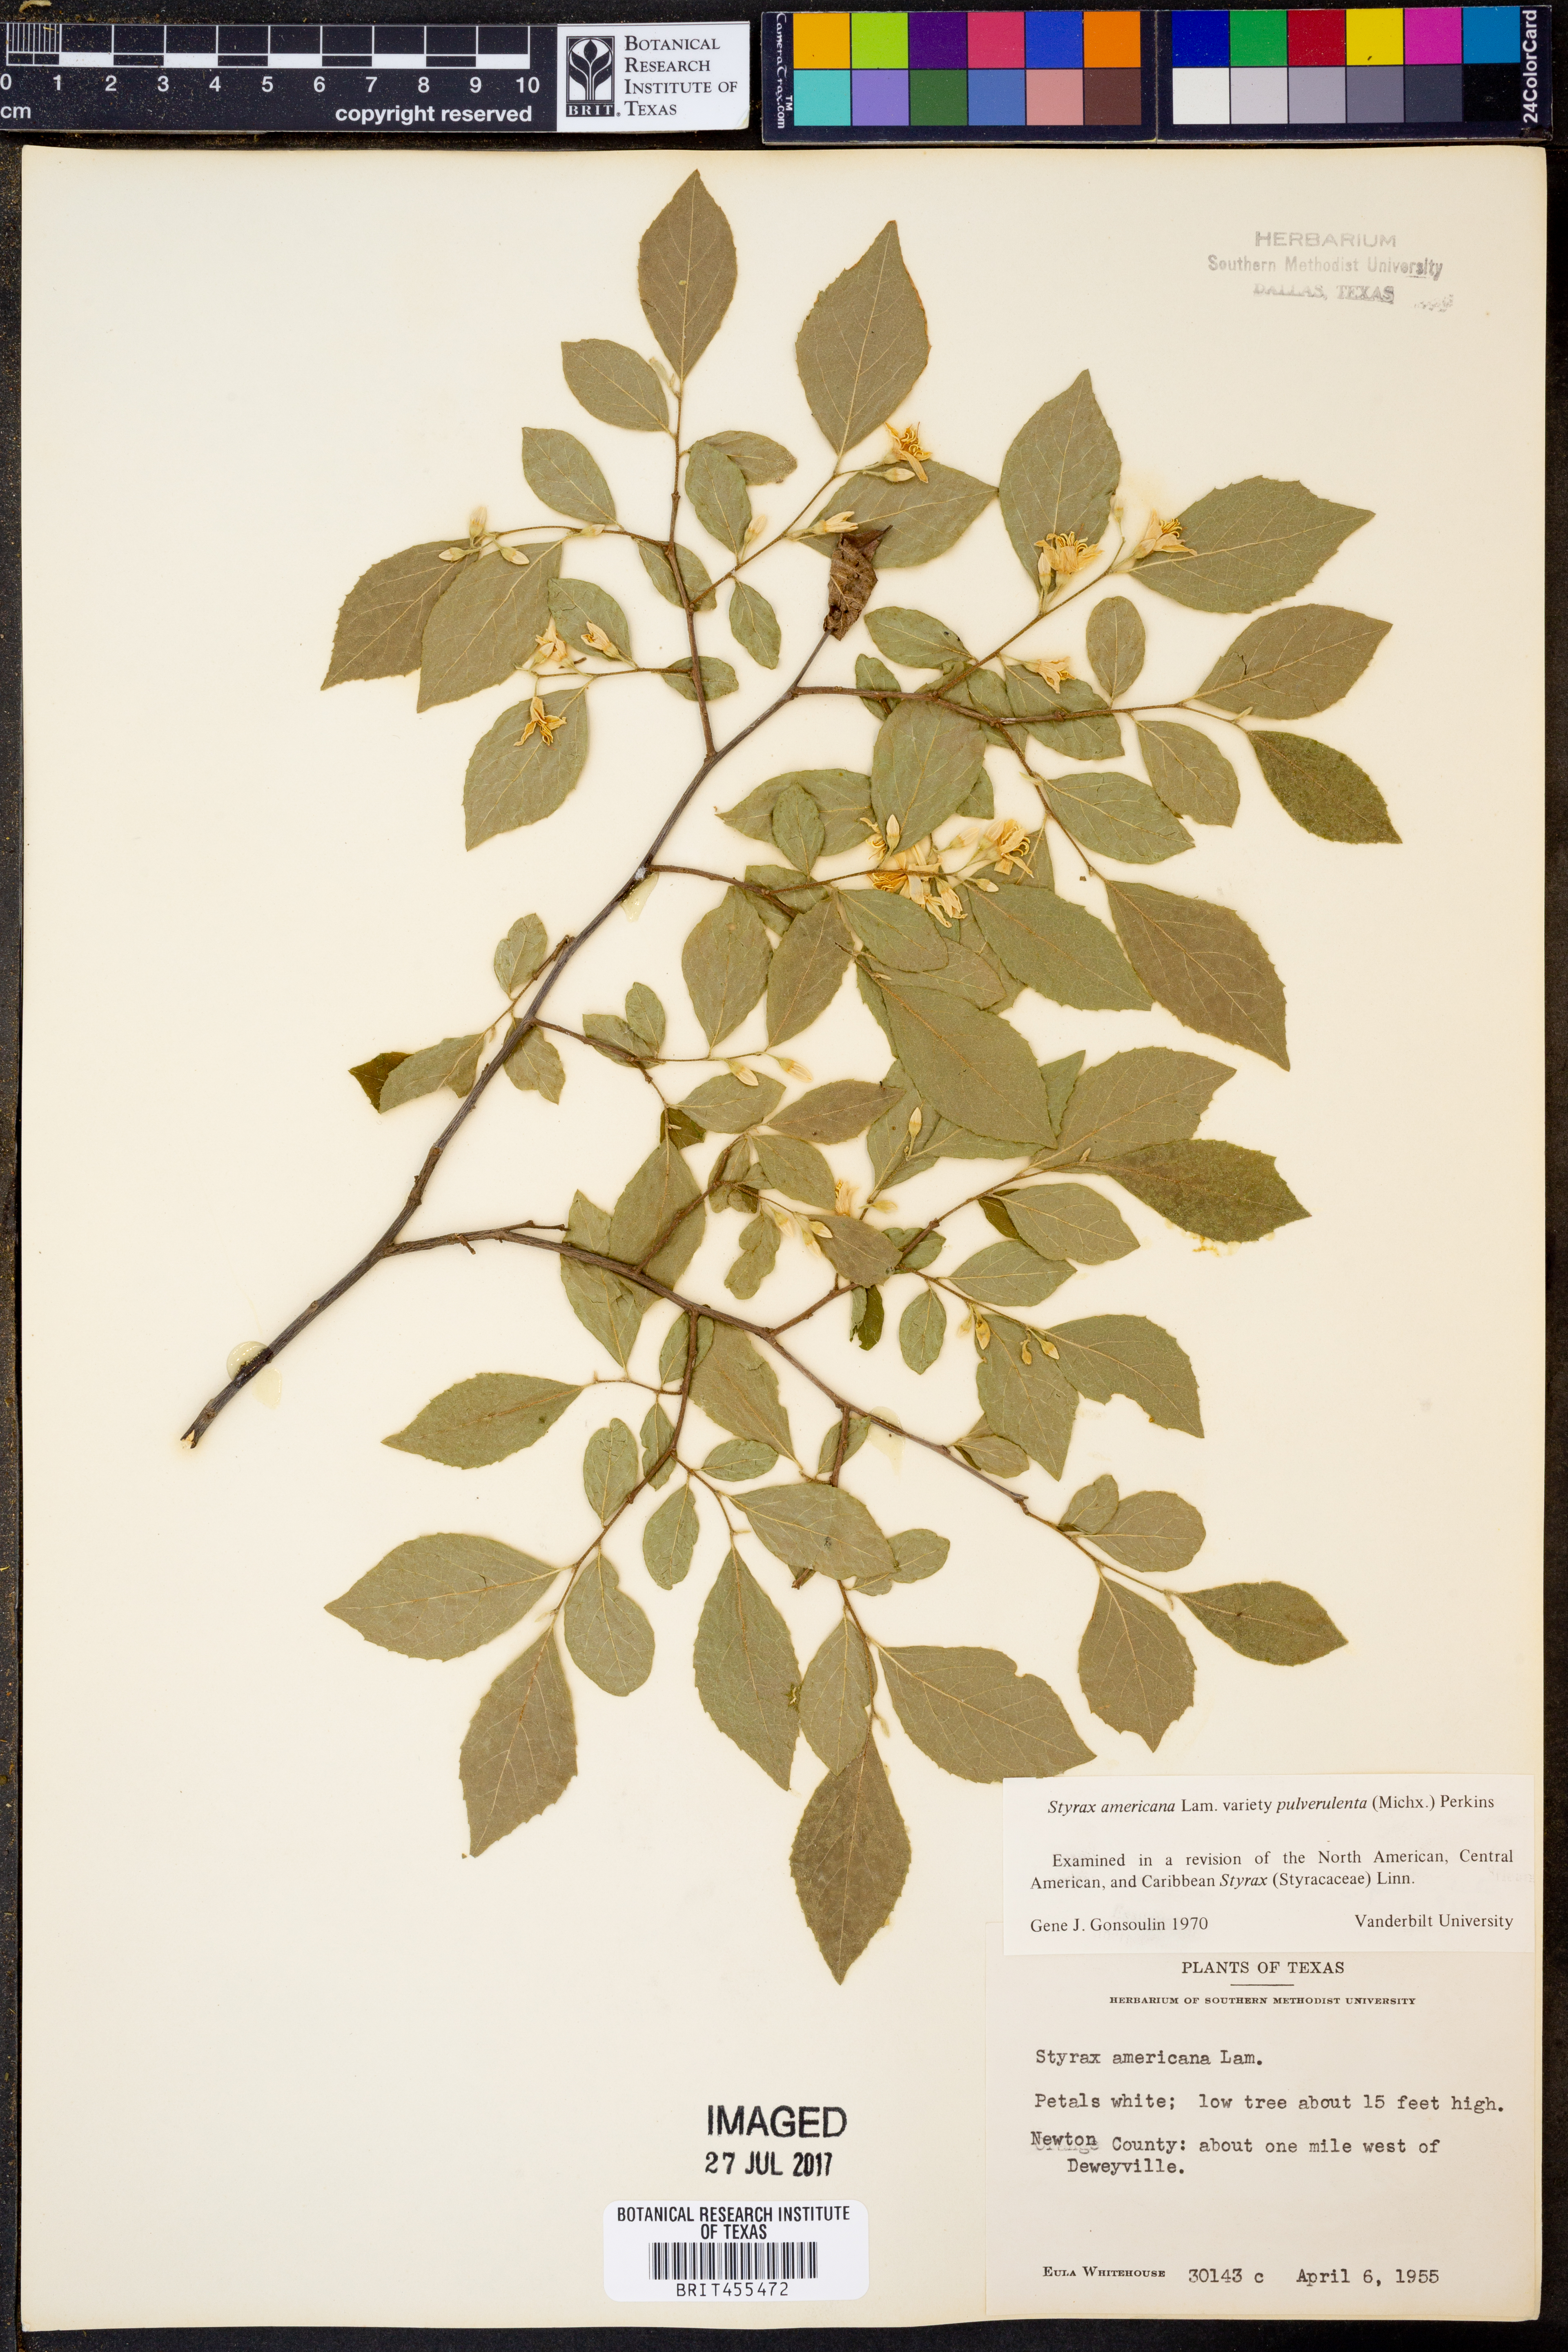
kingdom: Plantae
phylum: Tracheophyta
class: Magnoliopsida
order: Ericales
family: Styracaceae
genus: Styrax
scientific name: Styrax americanus
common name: American snowbell
